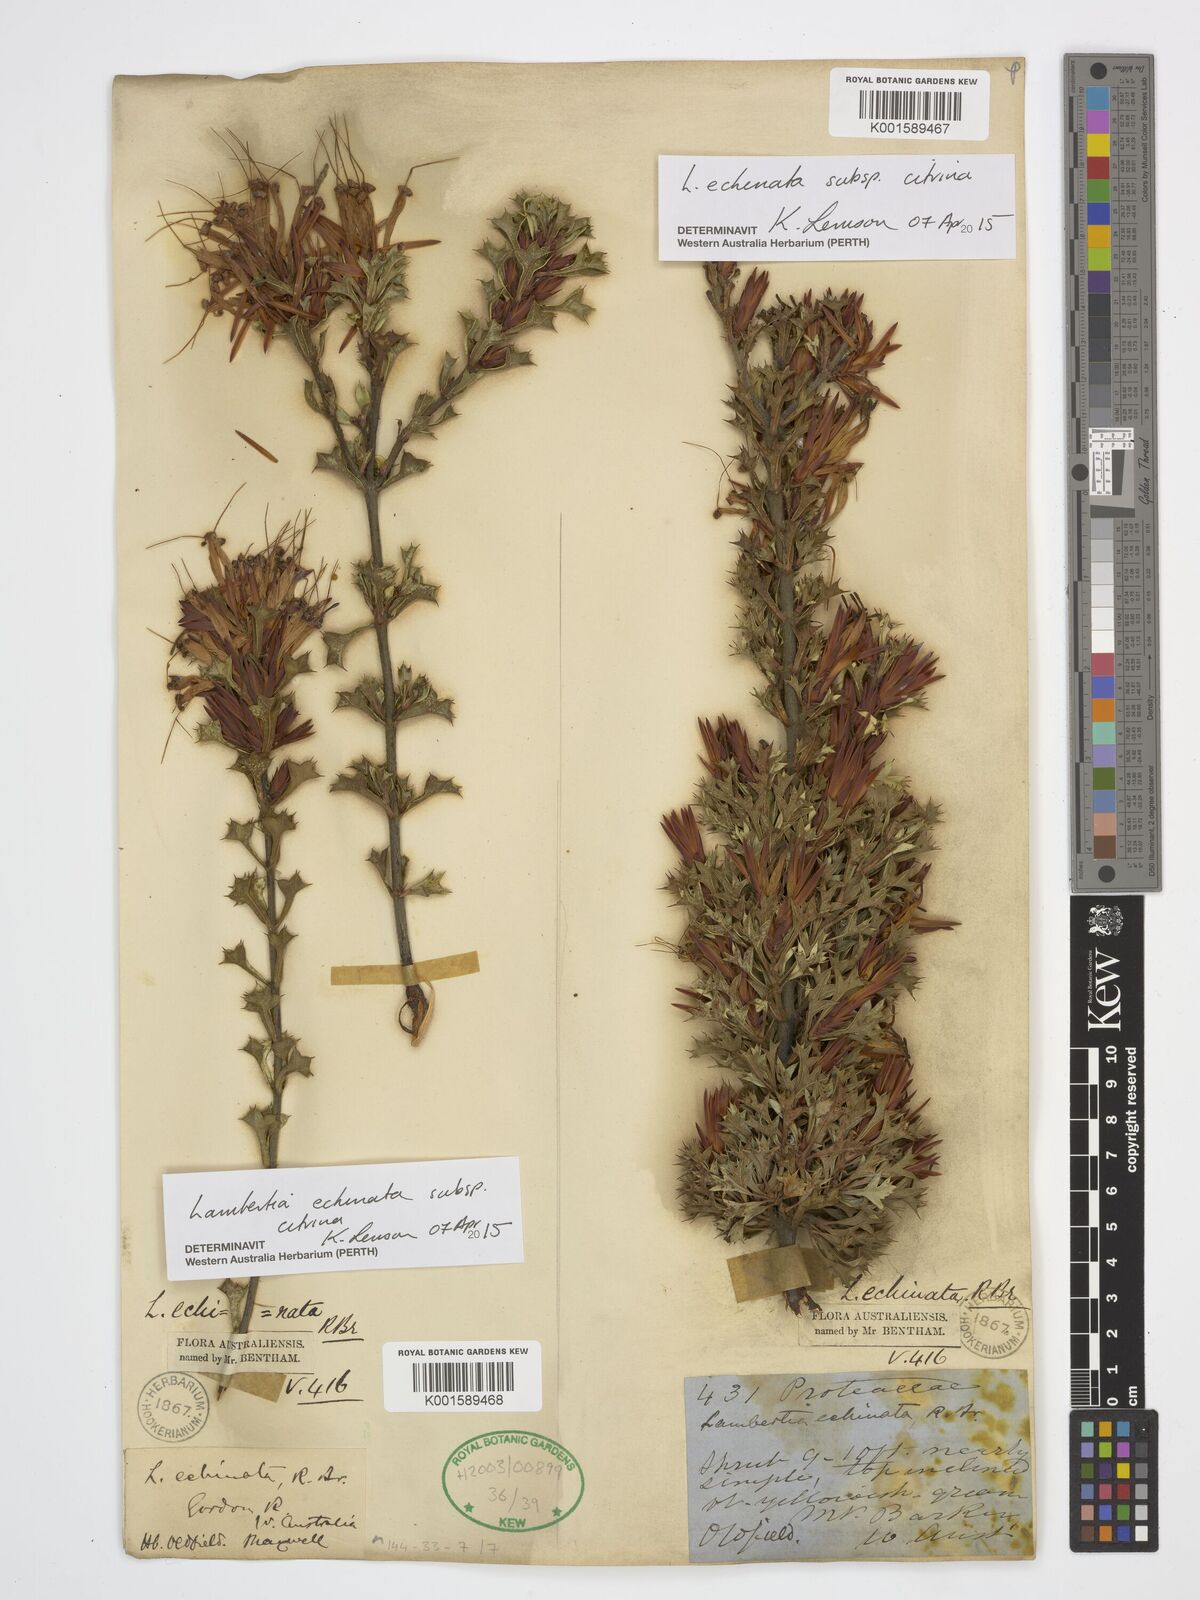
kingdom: Plantae
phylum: Tracheophyta
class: Magnoliopsida
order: Proteales
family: Proteaceae
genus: Lambertia
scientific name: Lambertia echinata
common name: Prickly honeysuckle
